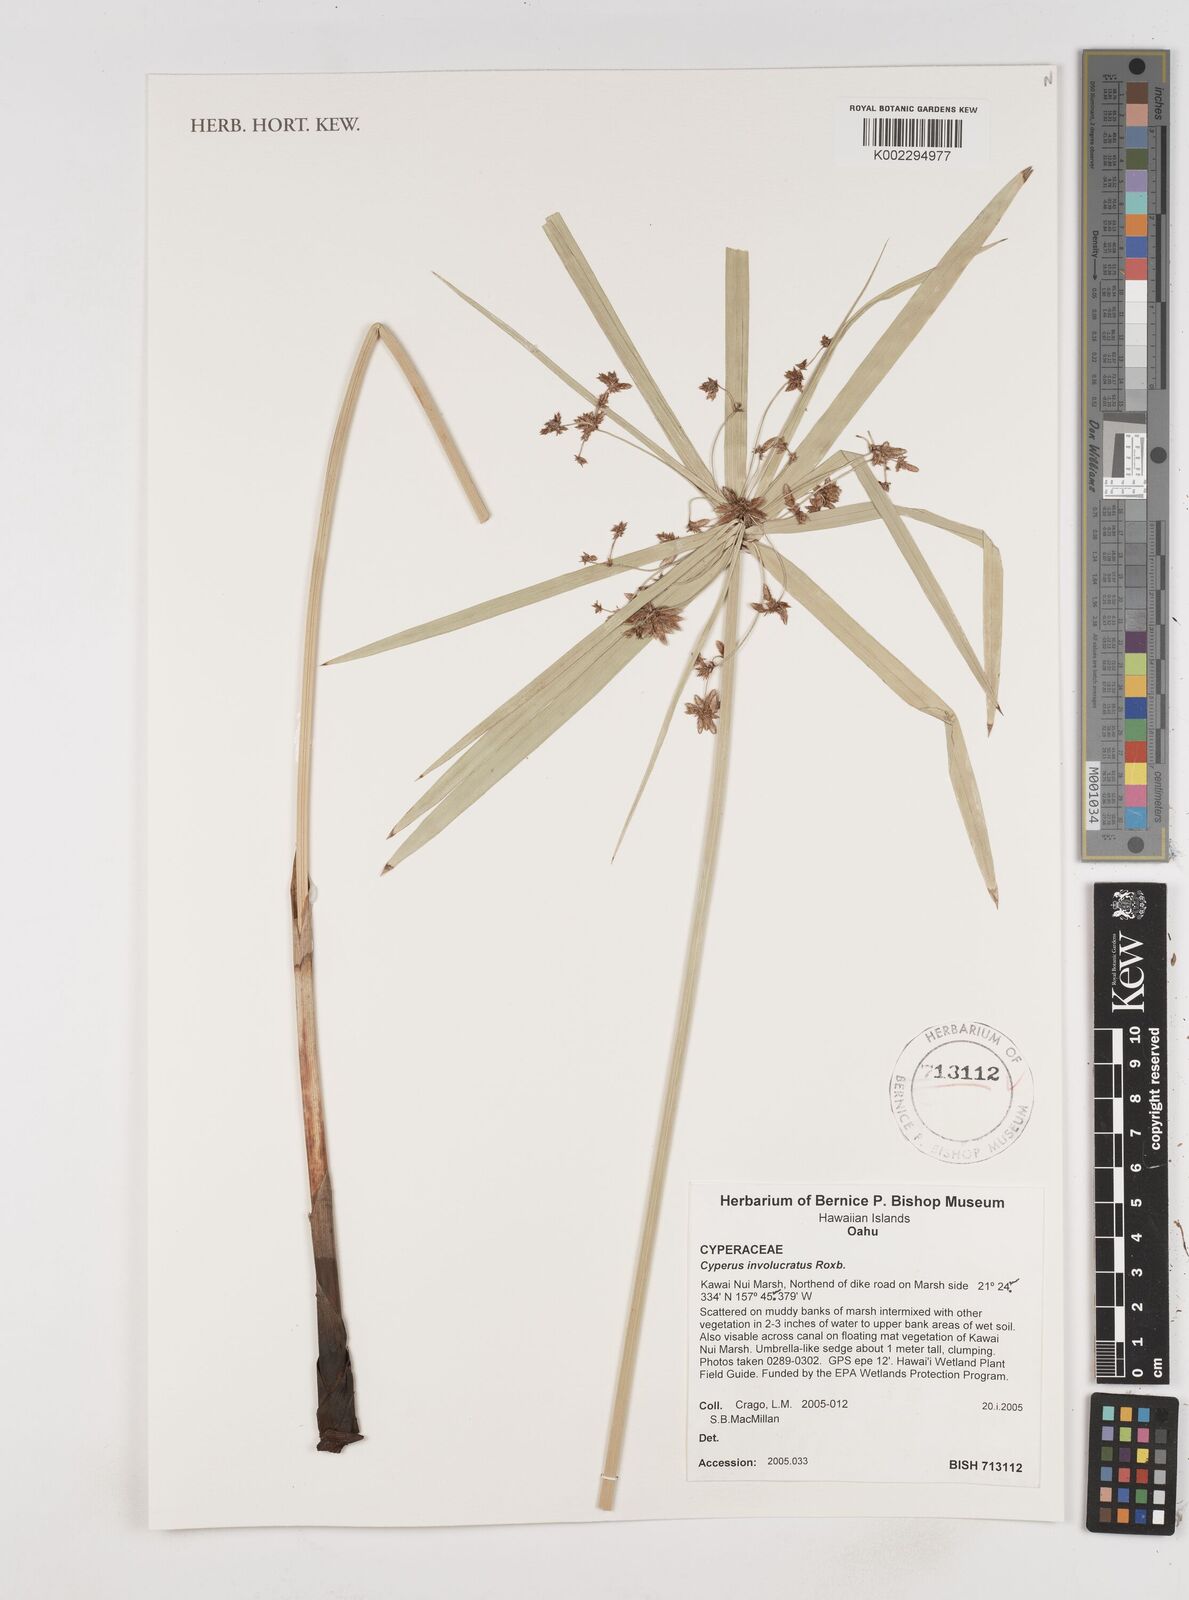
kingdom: Plantae
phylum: Tracheophyta
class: Liliopsida
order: Poales
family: Cyperaceae
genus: Cyperus
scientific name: Cyperus alternifolius
